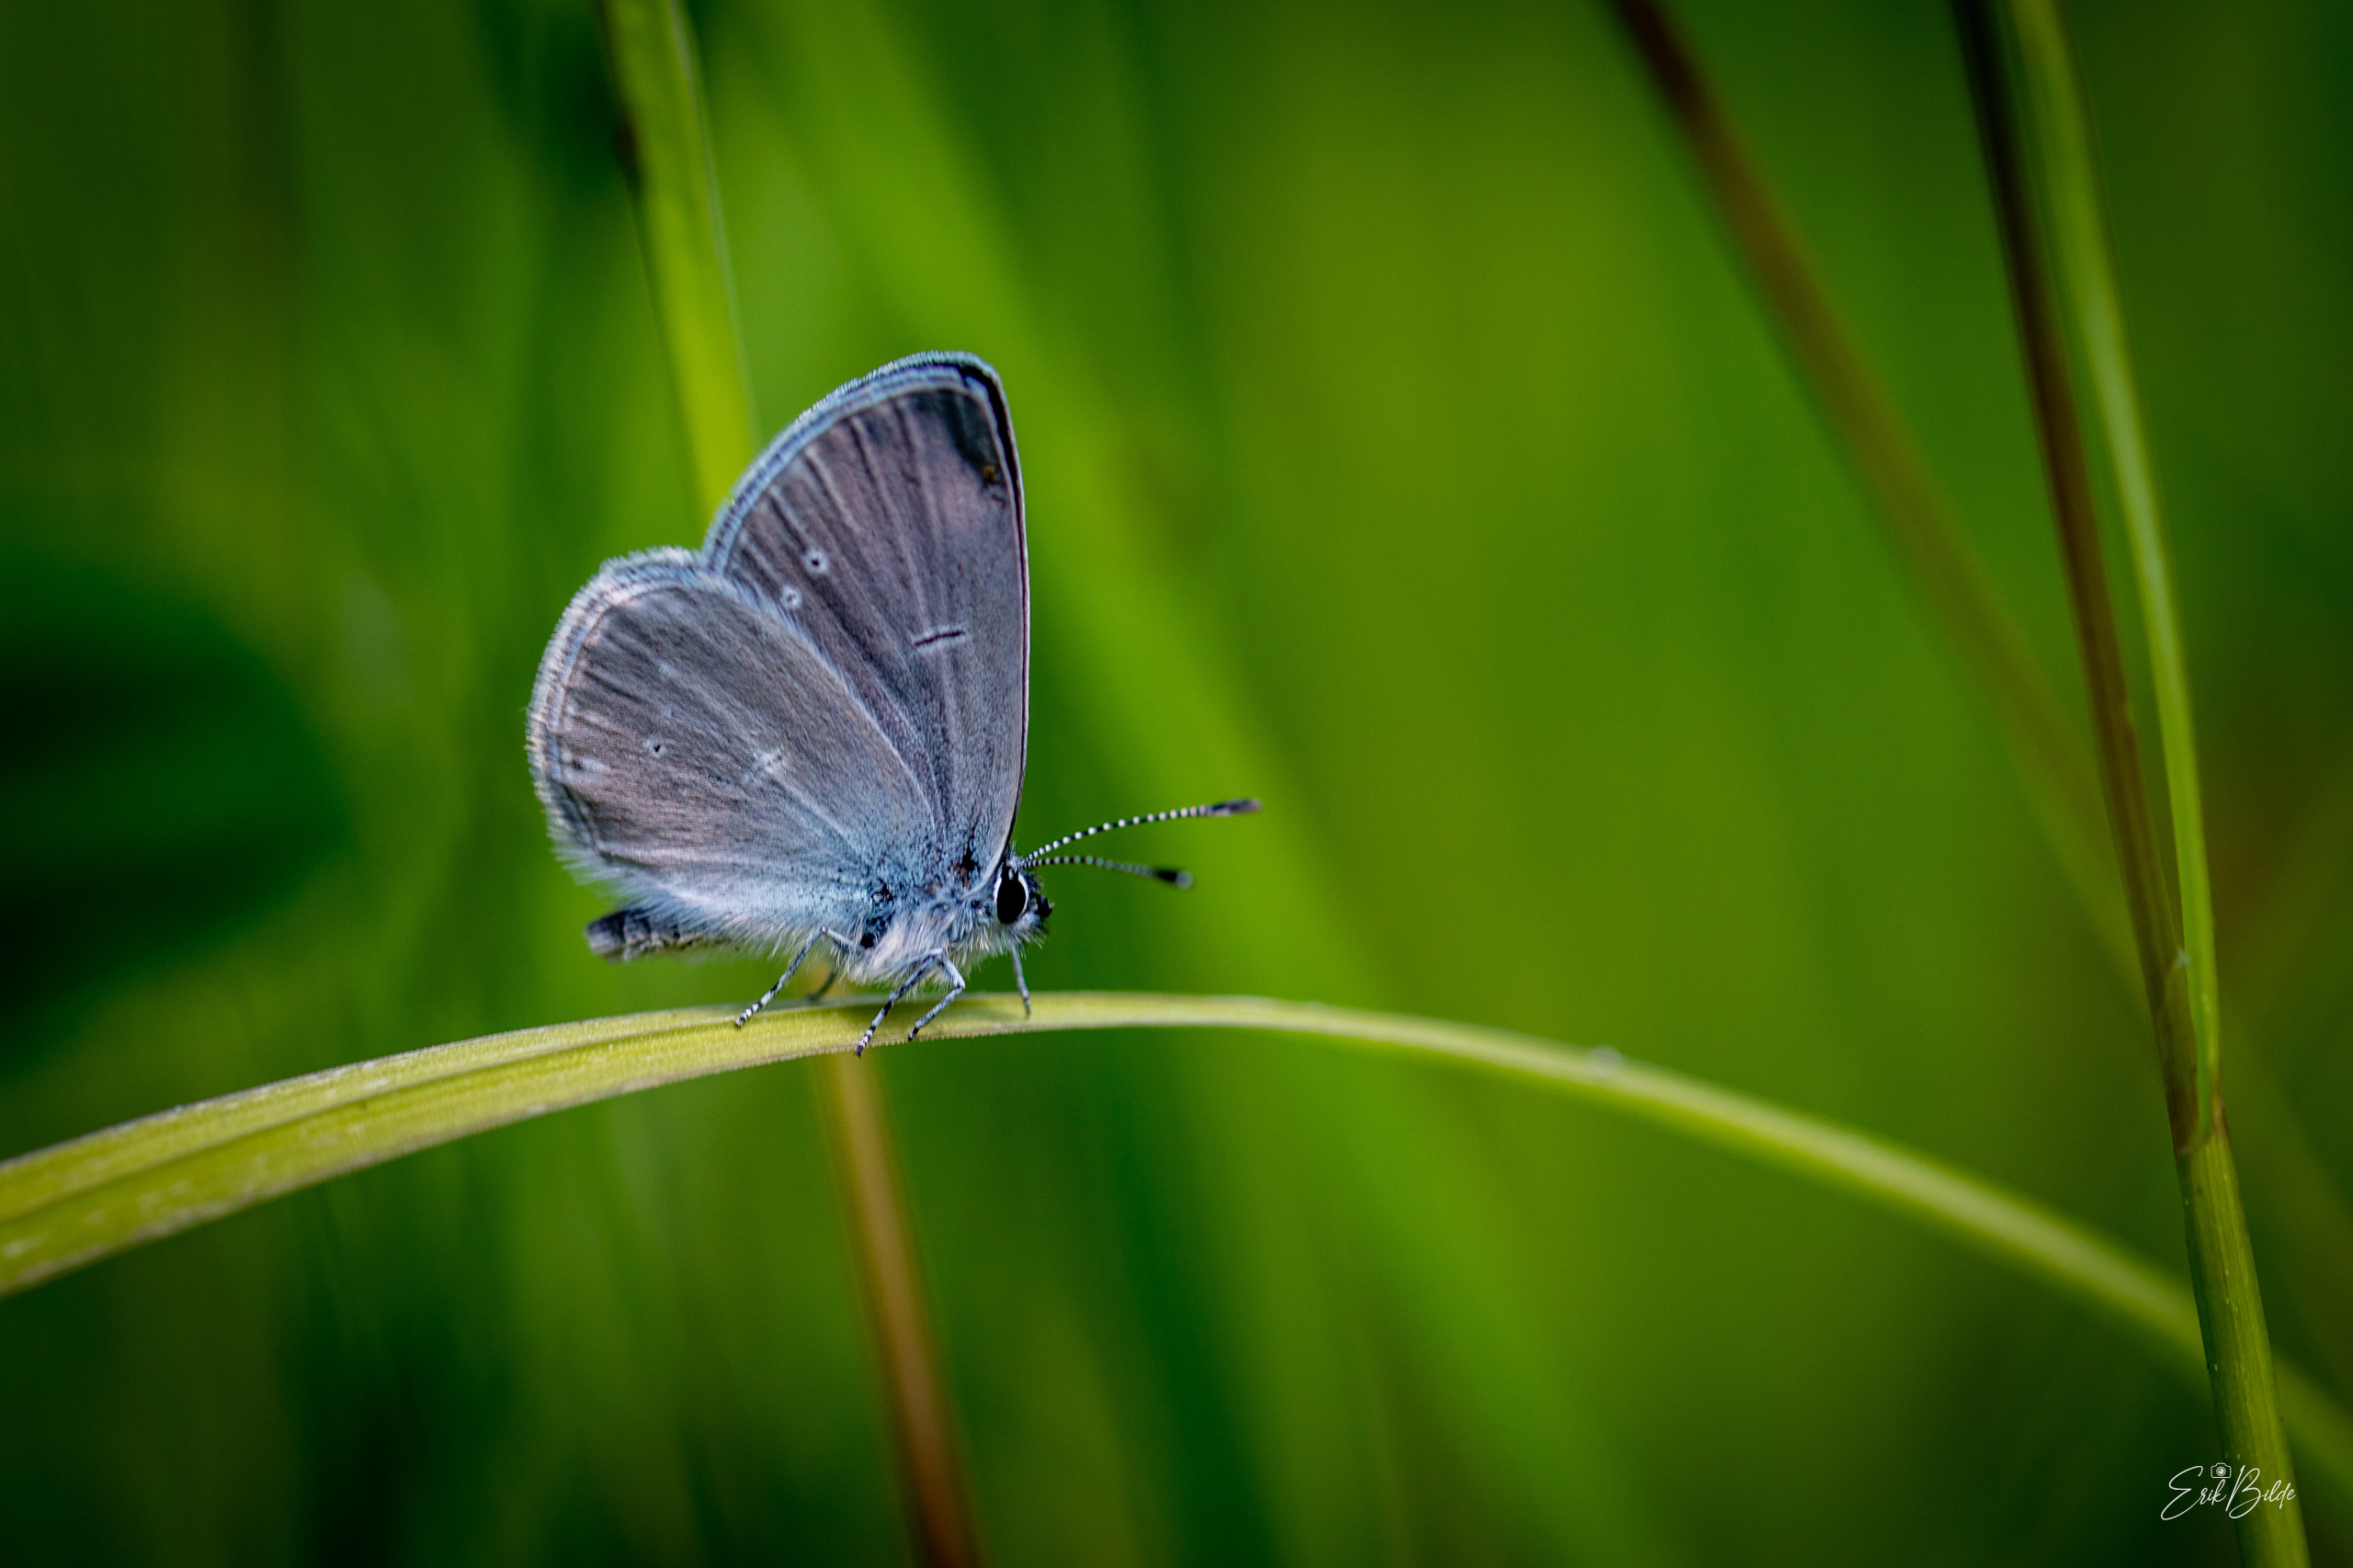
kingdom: Animalia
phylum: Arthropoda
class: Insecta
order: Lepidoptera
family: Lycaenidae
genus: Cupido
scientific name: Cupido minimus
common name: Dværgblåfugl
